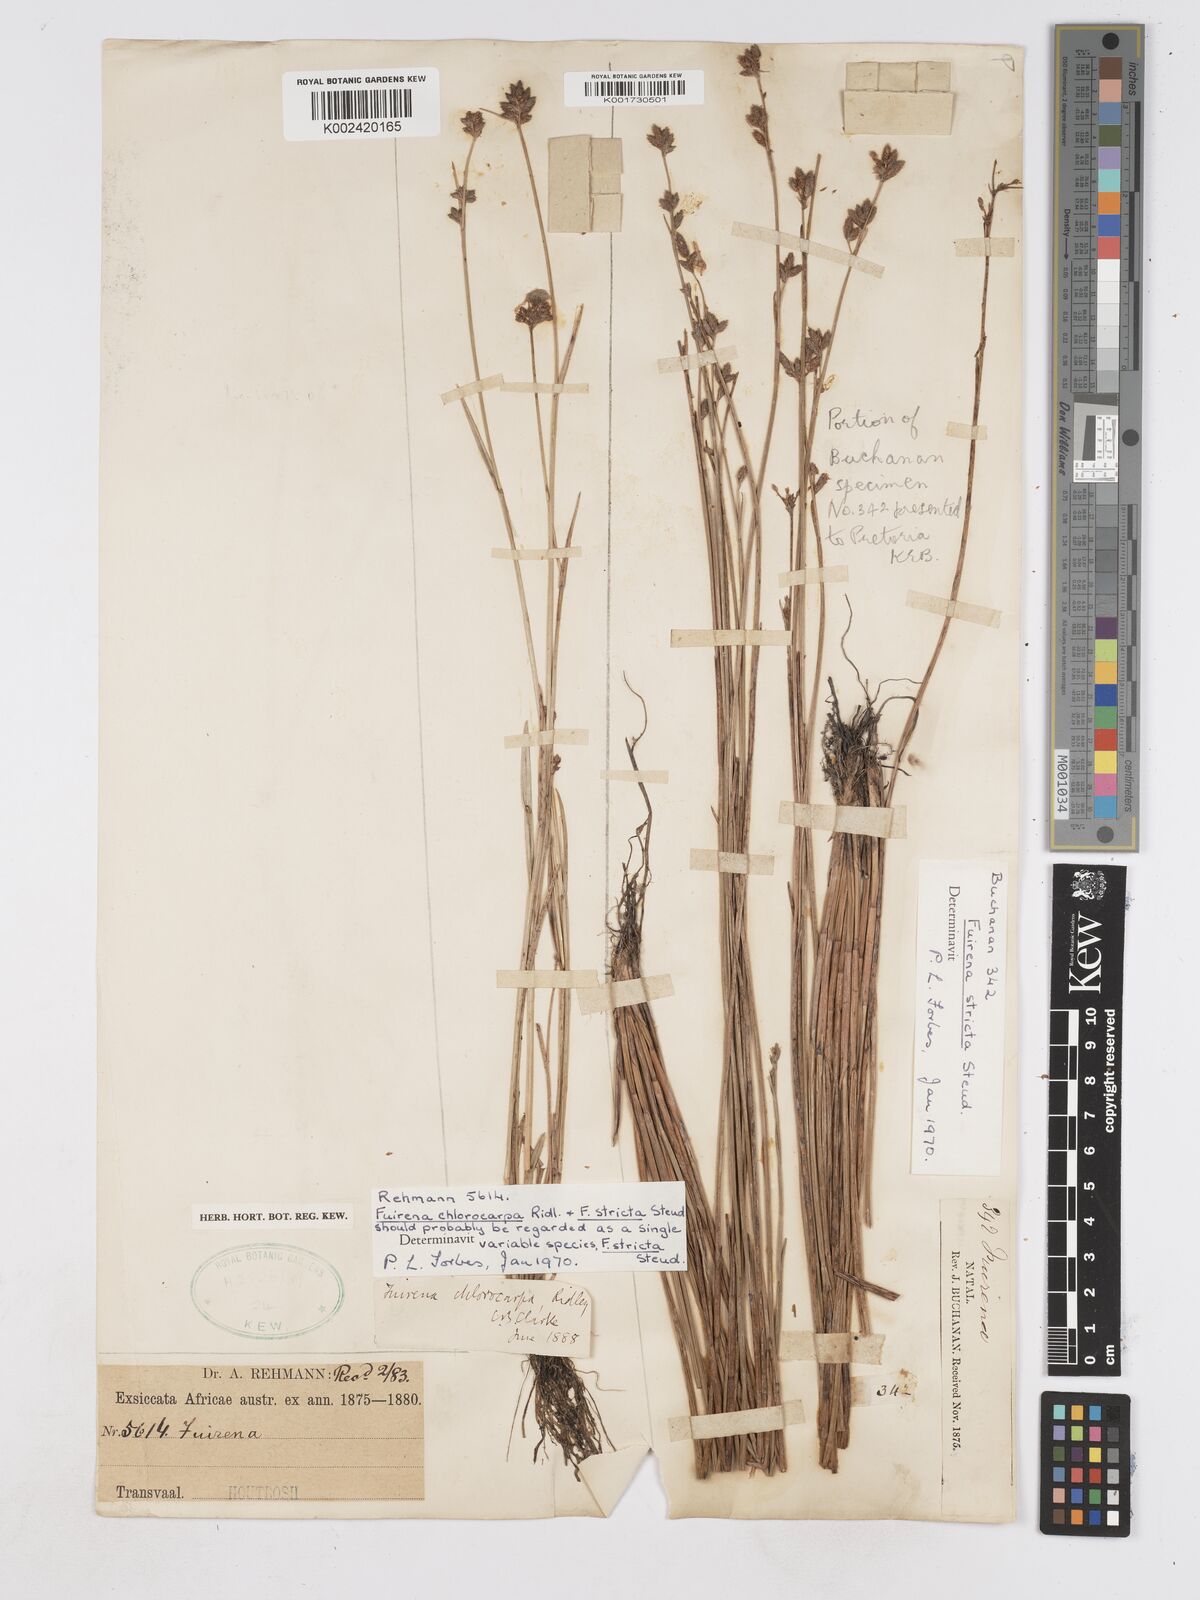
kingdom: Plantae
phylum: Tracheophyta
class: Liliopsida
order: Poales
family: Cyperaceae
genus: Fuirena
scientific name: Fuirena stricta
